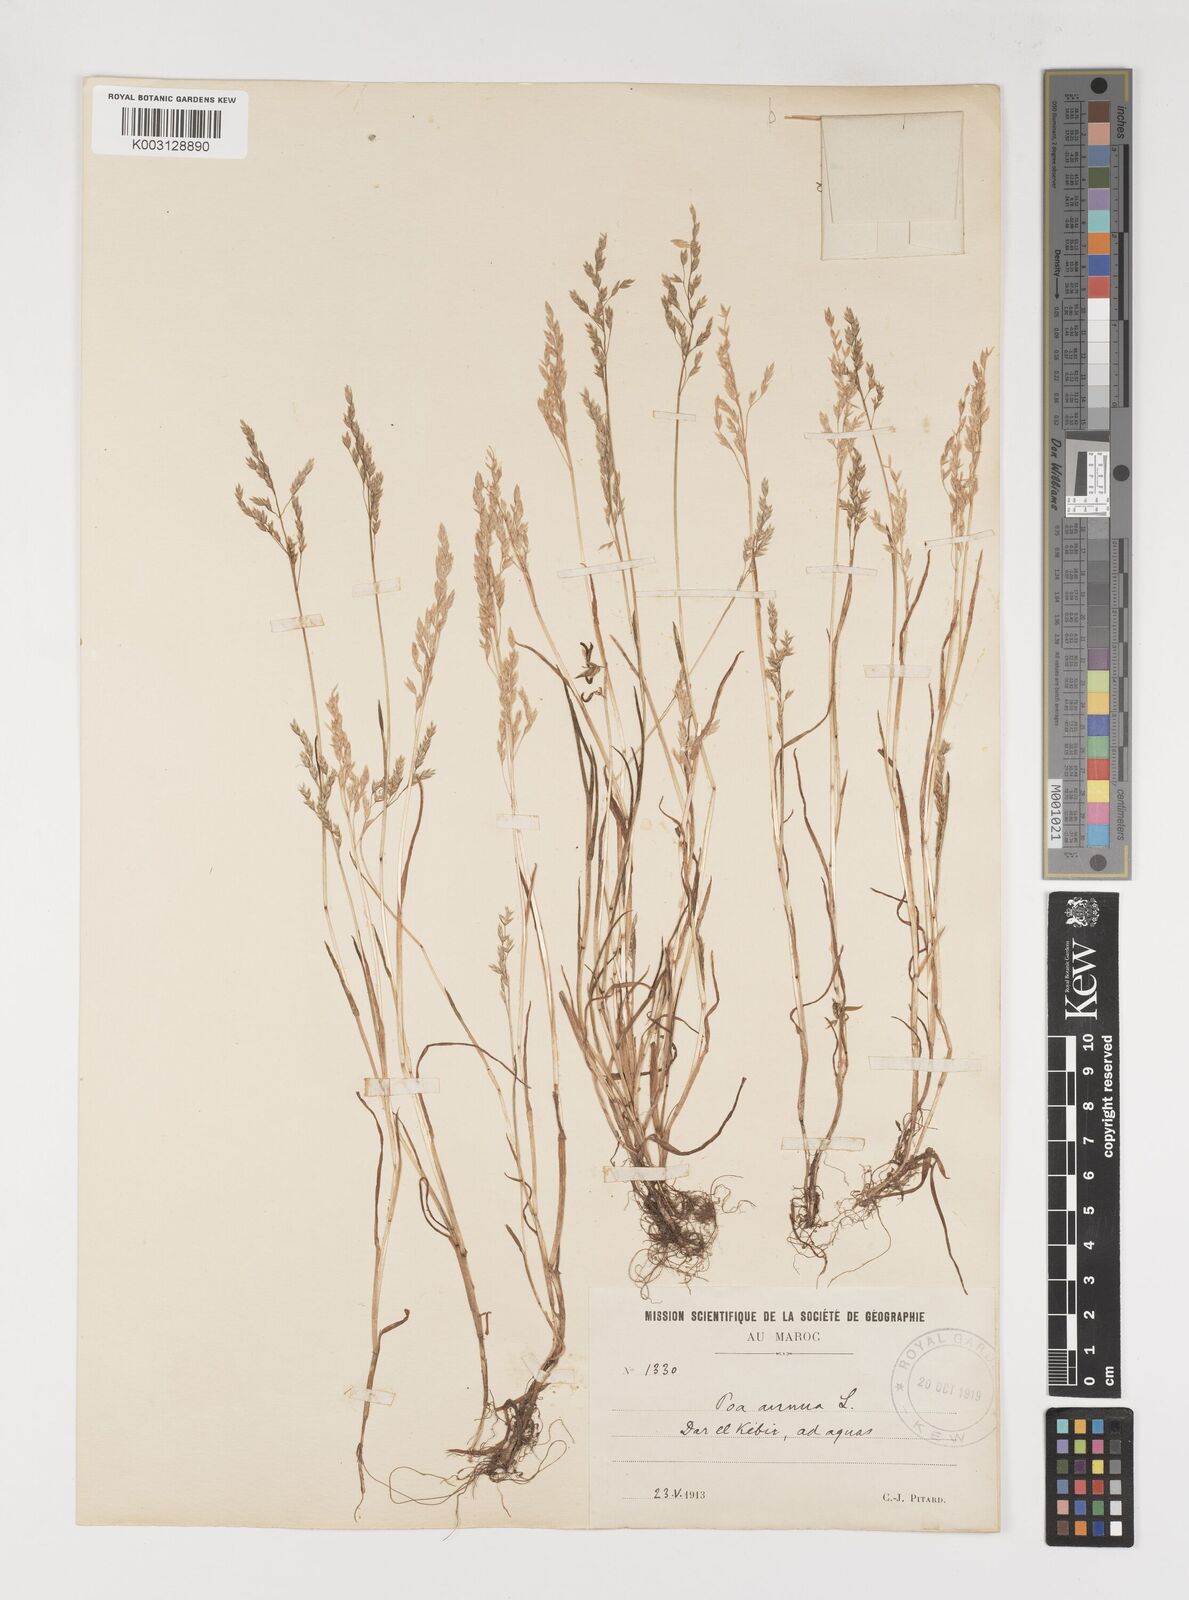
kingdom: Plantae
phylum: Tracheophyta
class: Liliopsida
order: Poales
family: Poaceae
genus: Poa
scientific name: Poa annua
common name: Annual bluegrass
